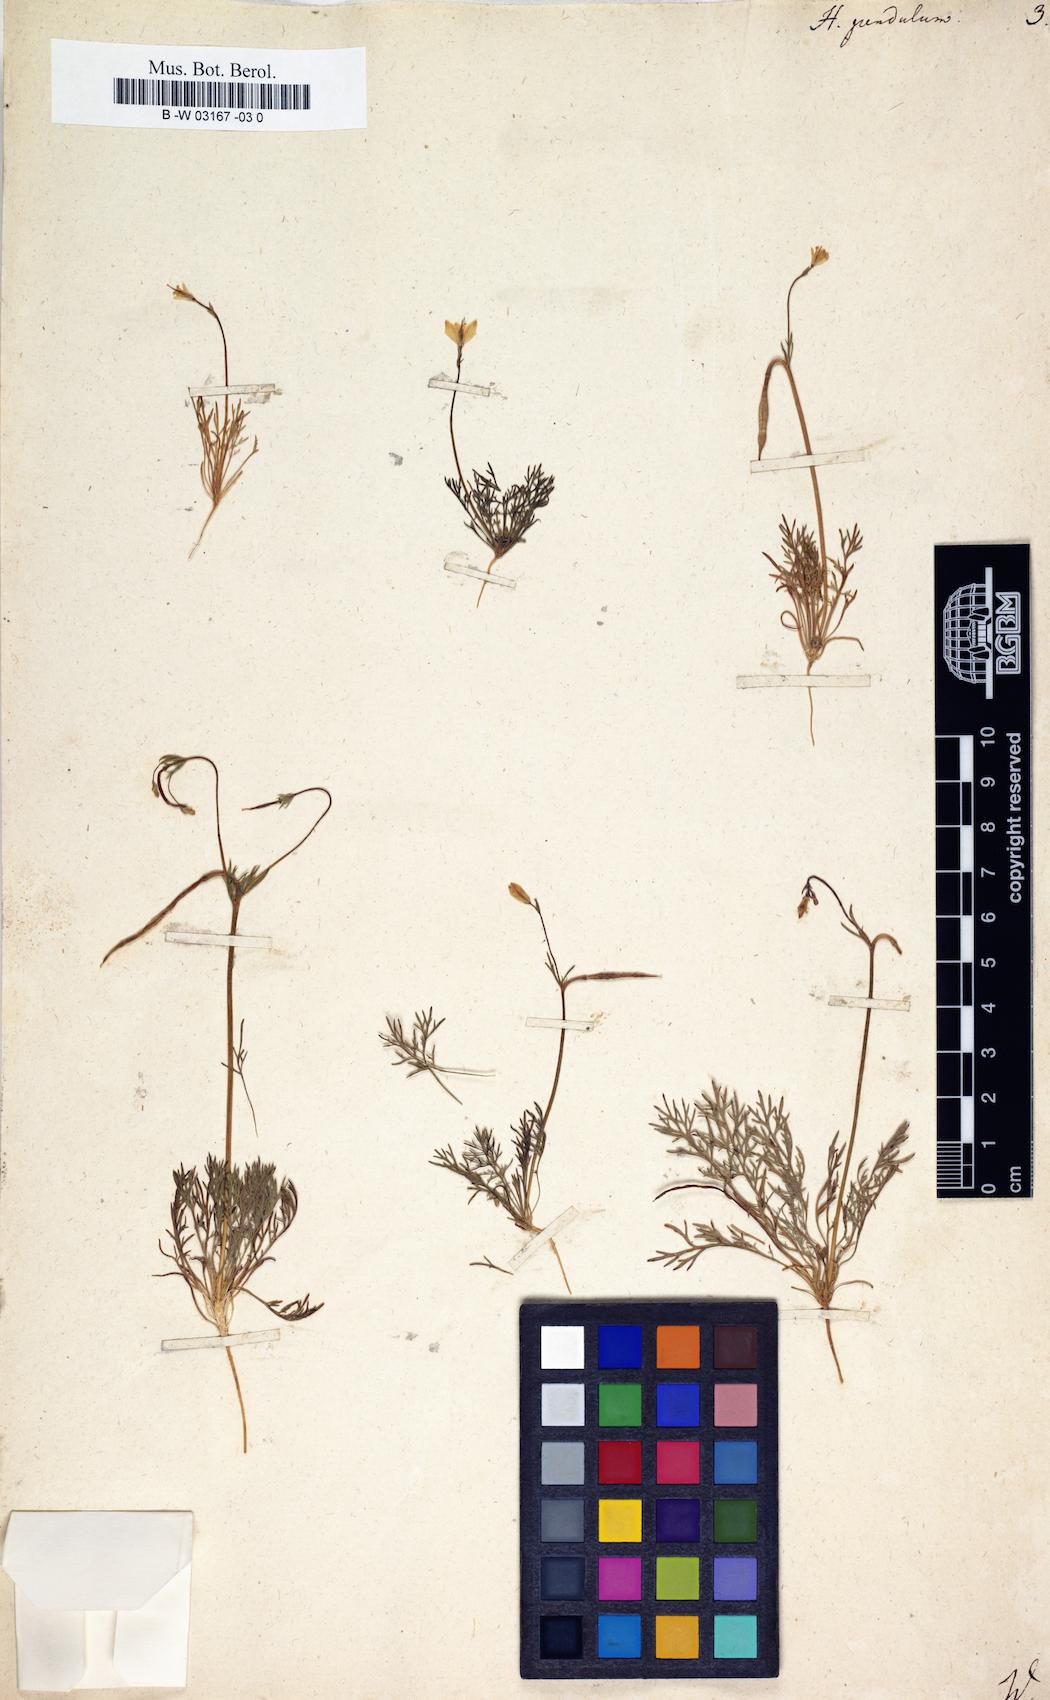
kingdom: Plantae
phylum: Tracheophyta
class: Magnoliopsida
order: Ranunculales
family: Papaveraceae
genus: Hypecoum
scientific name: Hypecoum pendulum
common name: Nodding hypecoum
